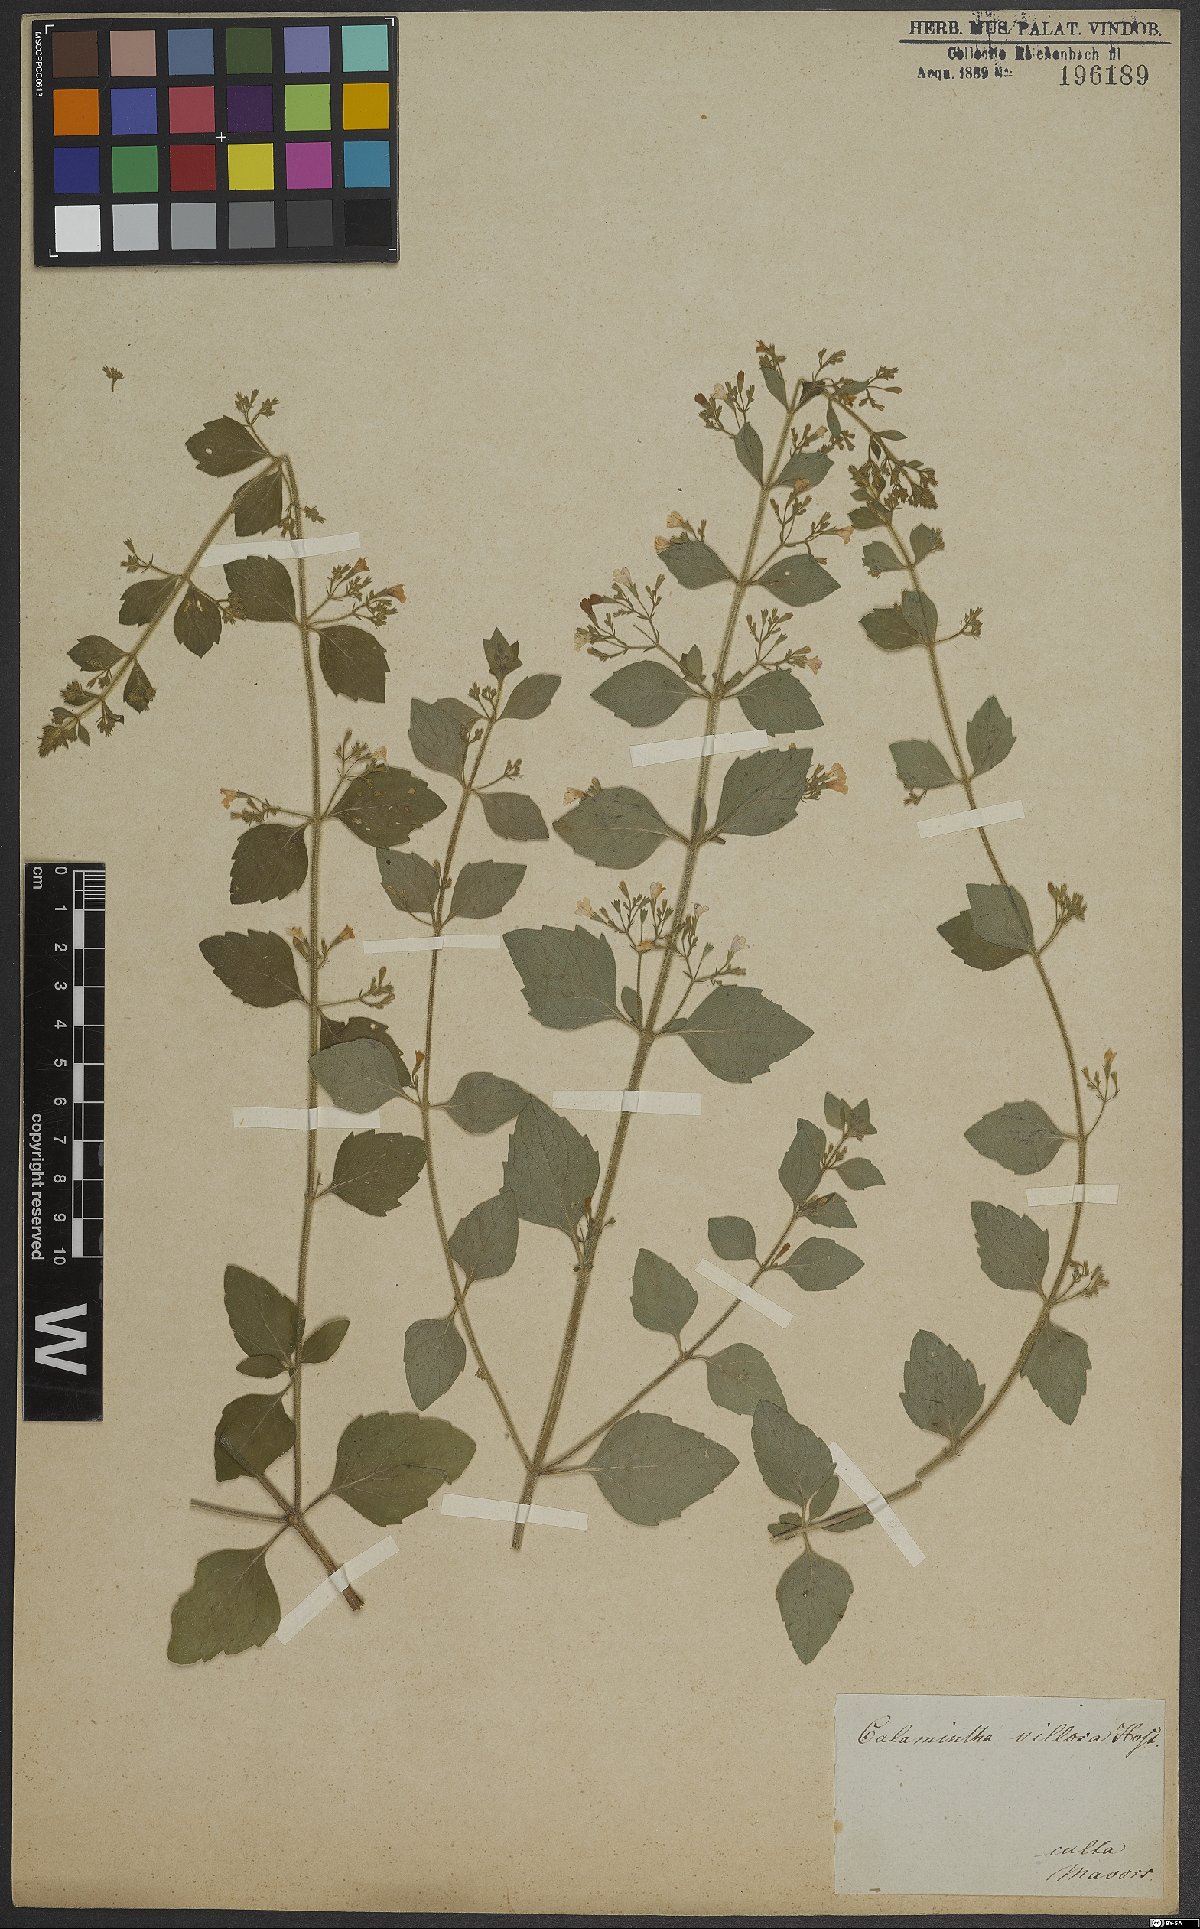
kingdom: Plantae
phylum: Tracheophyta
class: Magnoliopsida
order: Lamiales
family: Lamiaceae
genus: Clinopodium
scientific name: Clinopodium acinos
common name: Basil thyme
